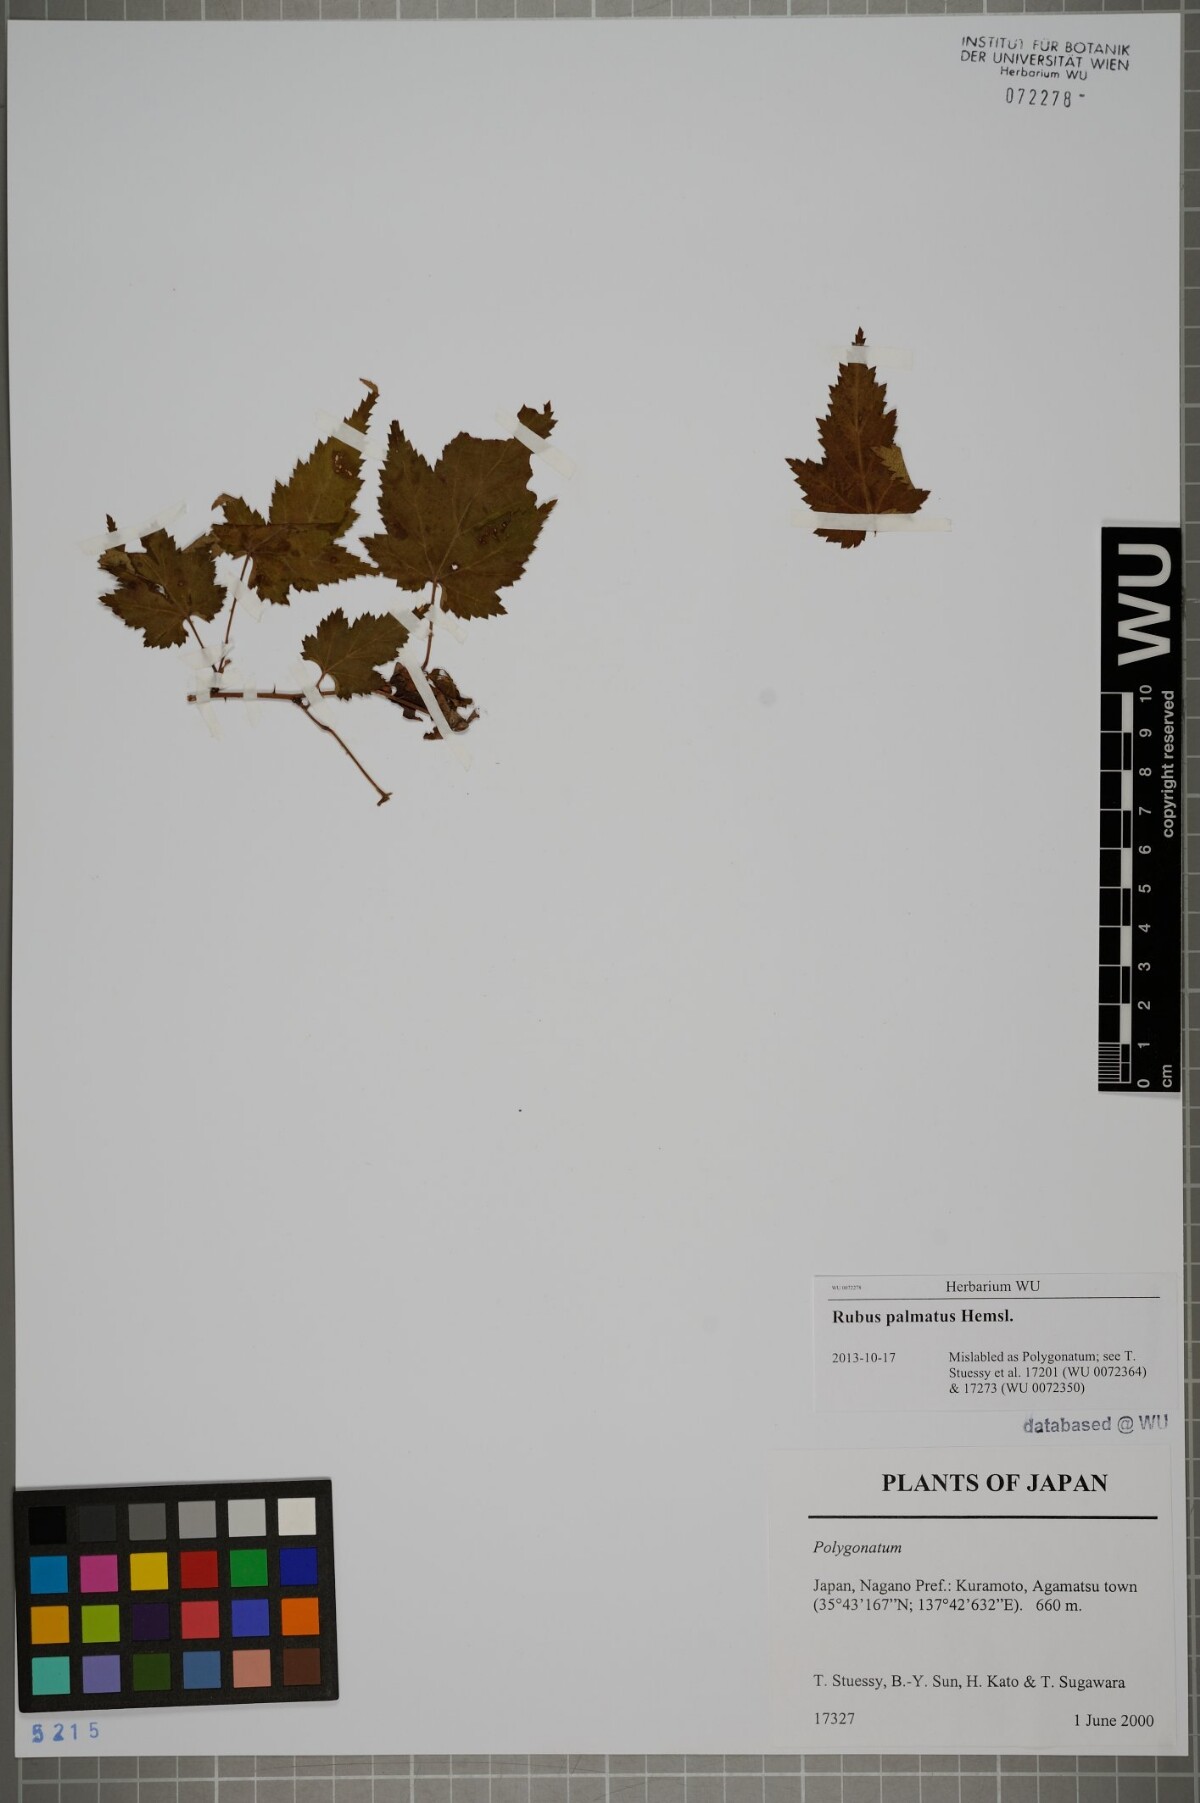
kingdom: Plantae
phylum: Tracheophyta
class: Magnoliopsida
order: Rosales
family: Rosaceae
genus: Rubus
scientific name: Rubus palmatus
